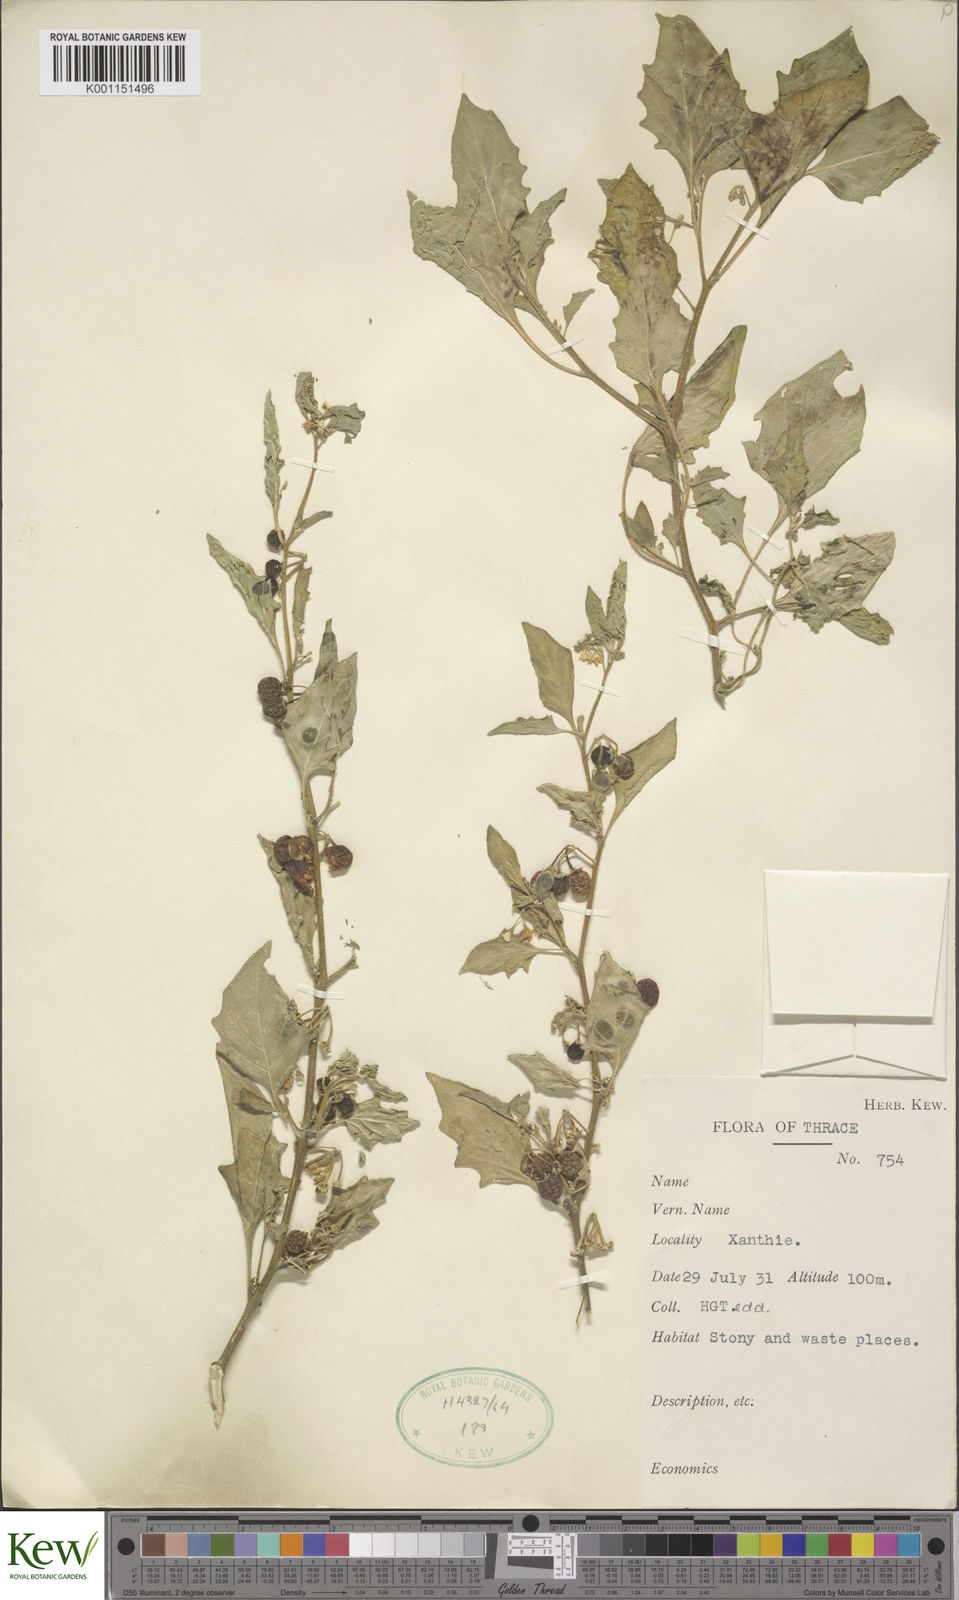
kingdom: Plantae
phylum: Tracheophyta
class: Magnoliopsida
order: Solanales
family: Solanaceae
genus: Solanum
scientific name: Solanum nigrum
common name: Black nightshade
